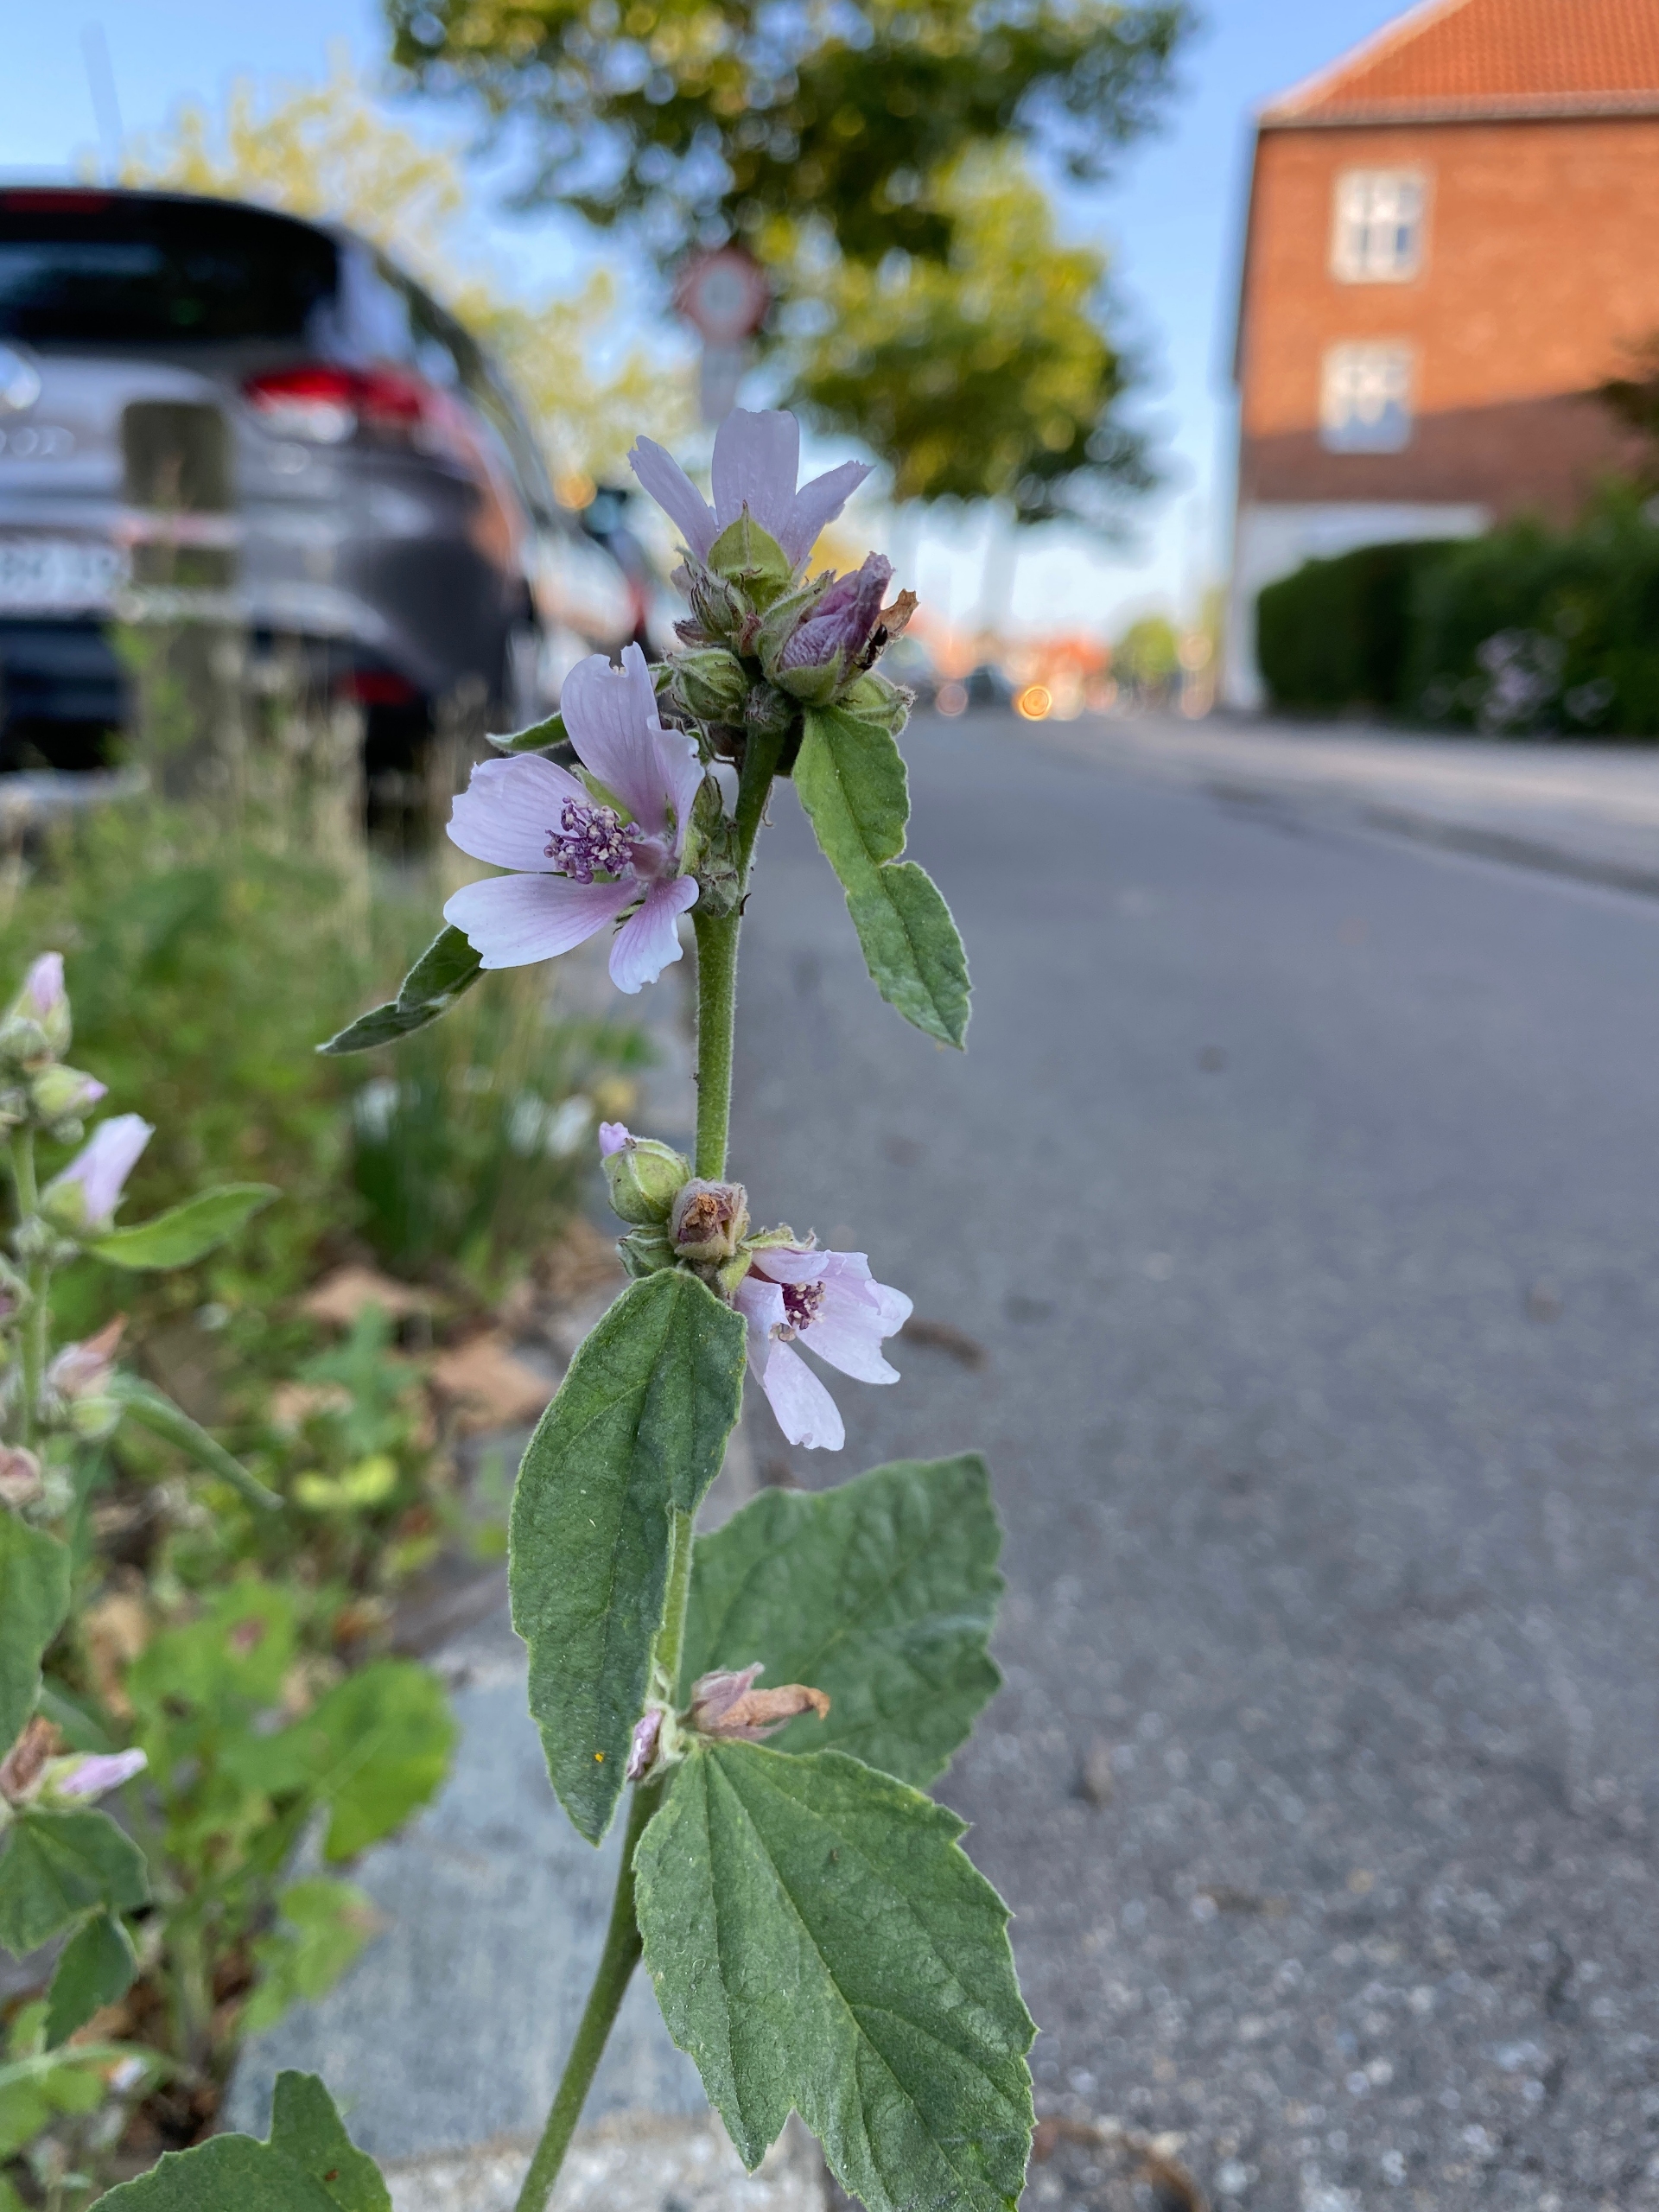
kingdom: Plantae
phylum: Tracheophyta
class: Magnoliopsida
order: Malvales
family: Malvaceae
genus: Althaea
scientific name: Althaea officinalis
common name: Lægestokrose
